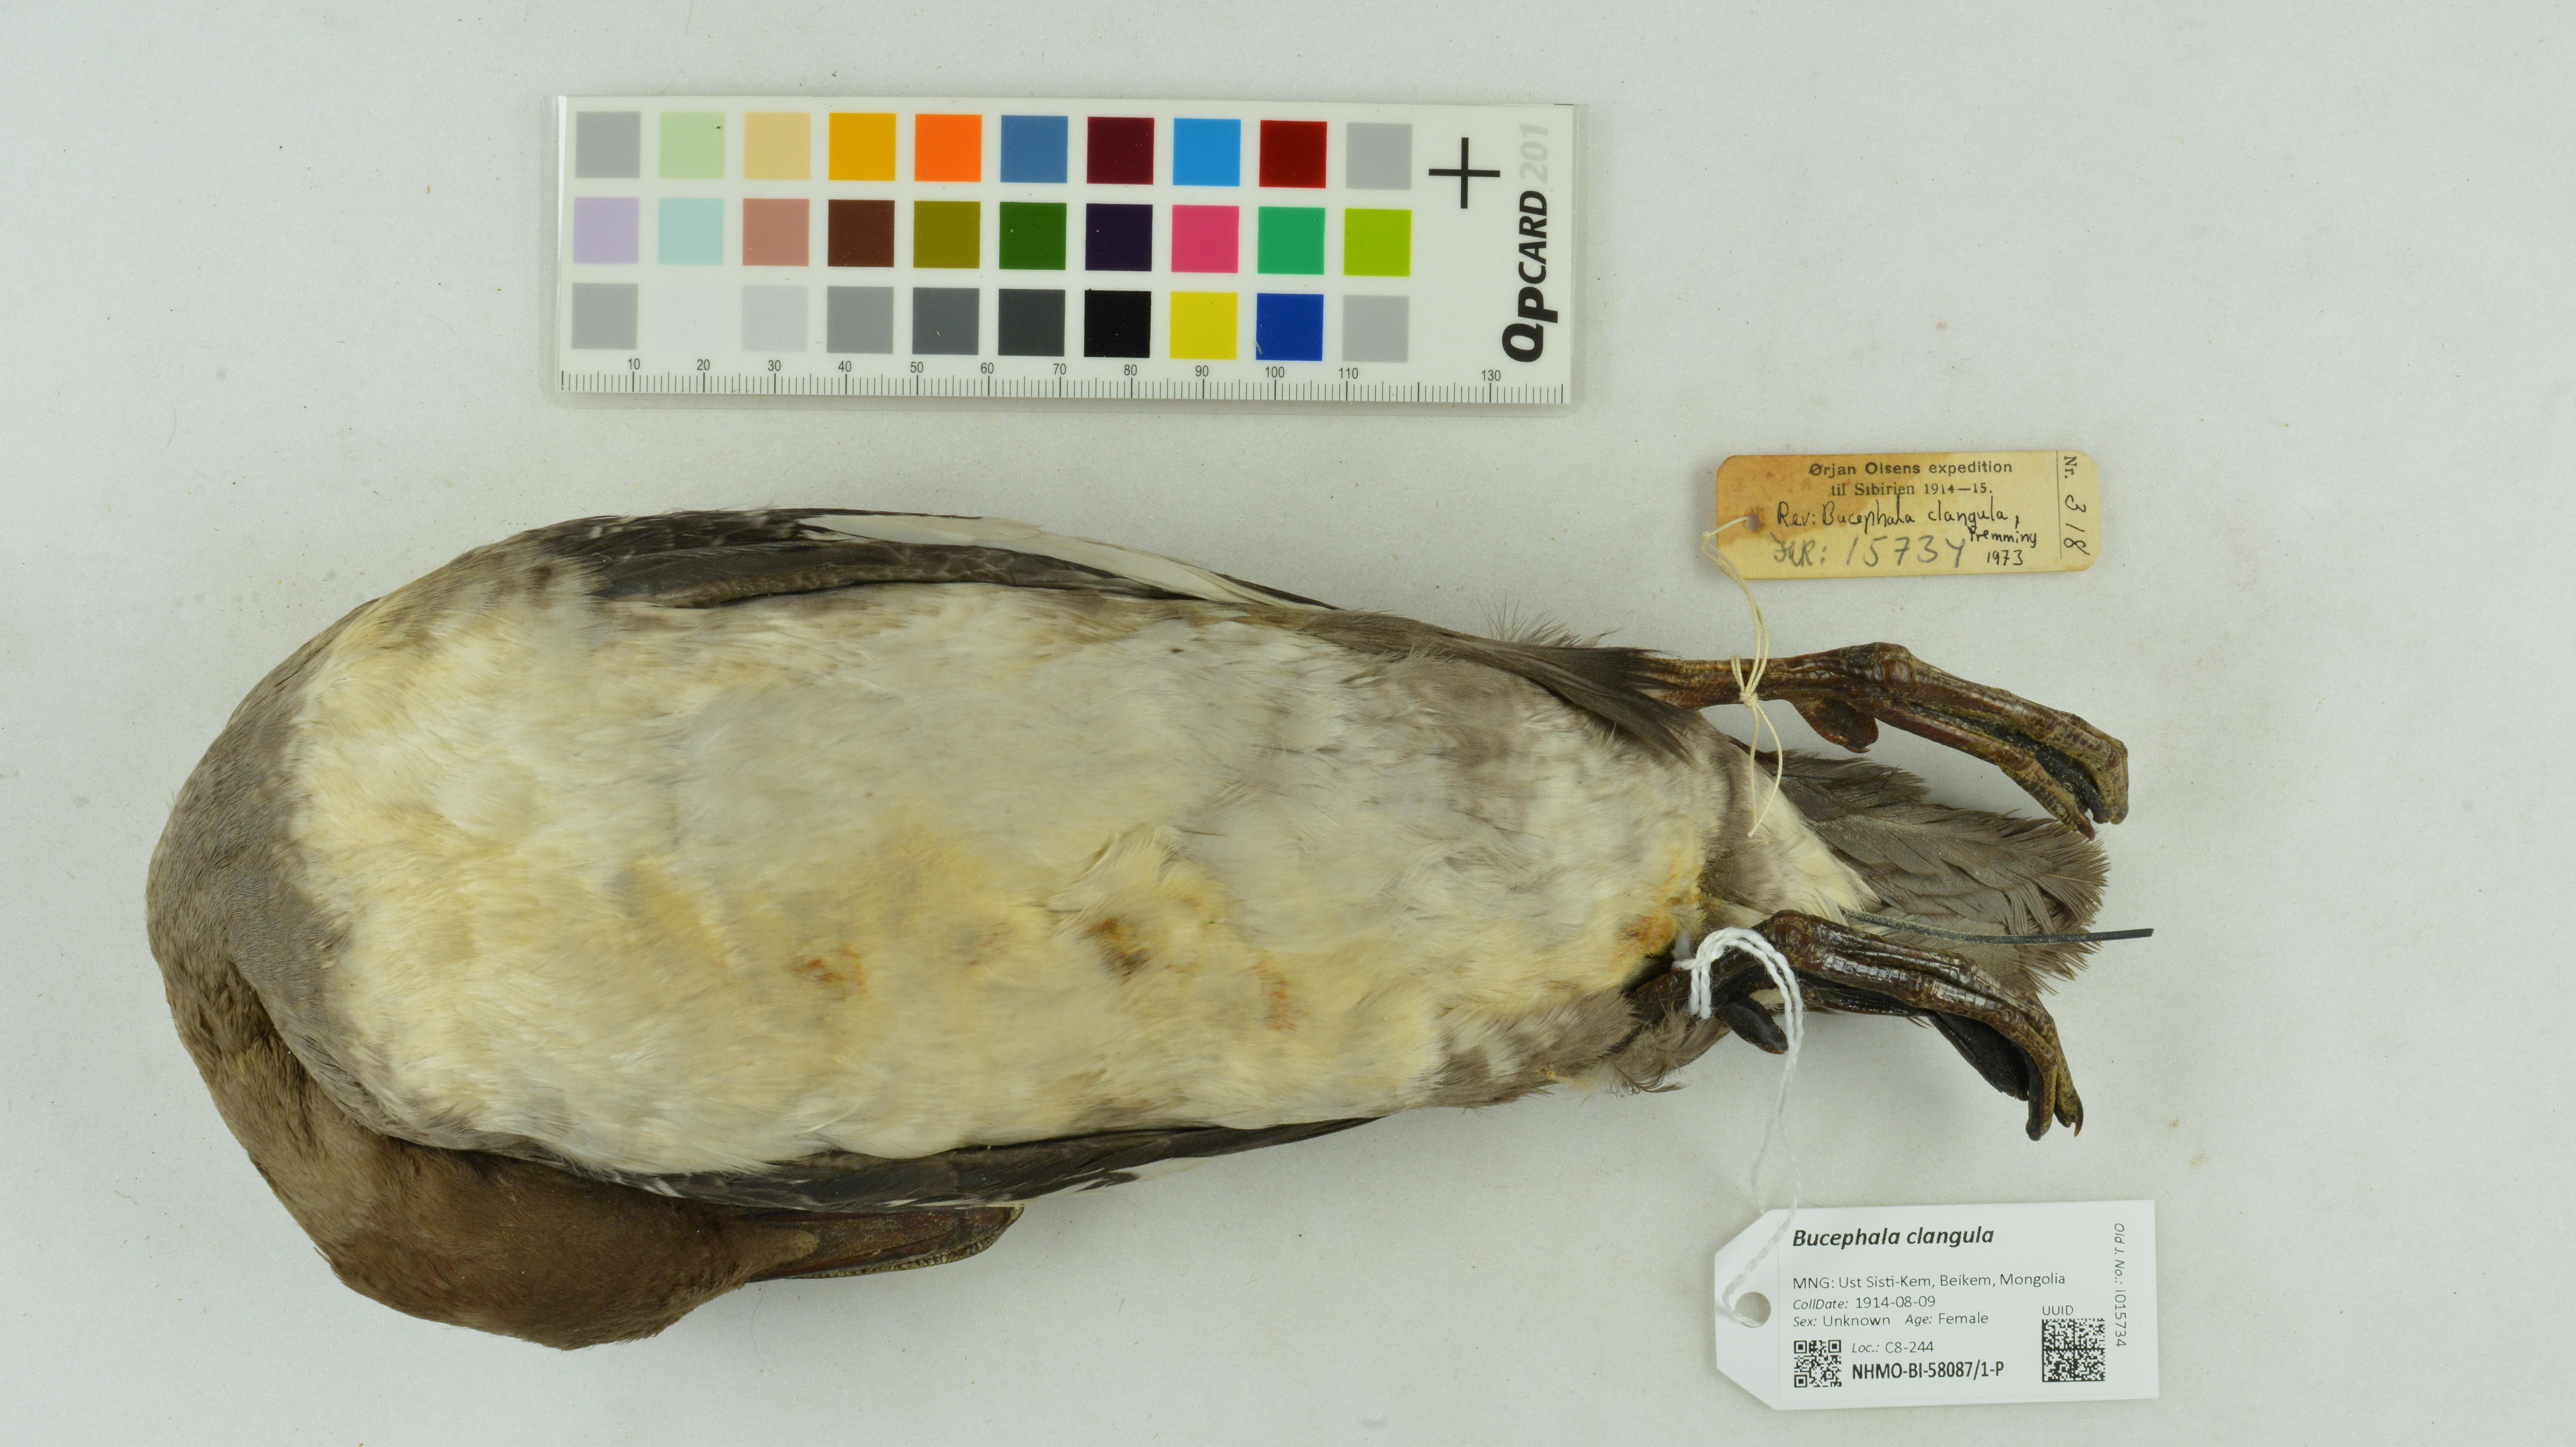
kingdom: Animalia
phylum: Chordata
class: Aves
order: Anseriformes
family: Anatidae
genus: Bucephala
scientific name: Bucephala clangula
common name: Common goldeneye
